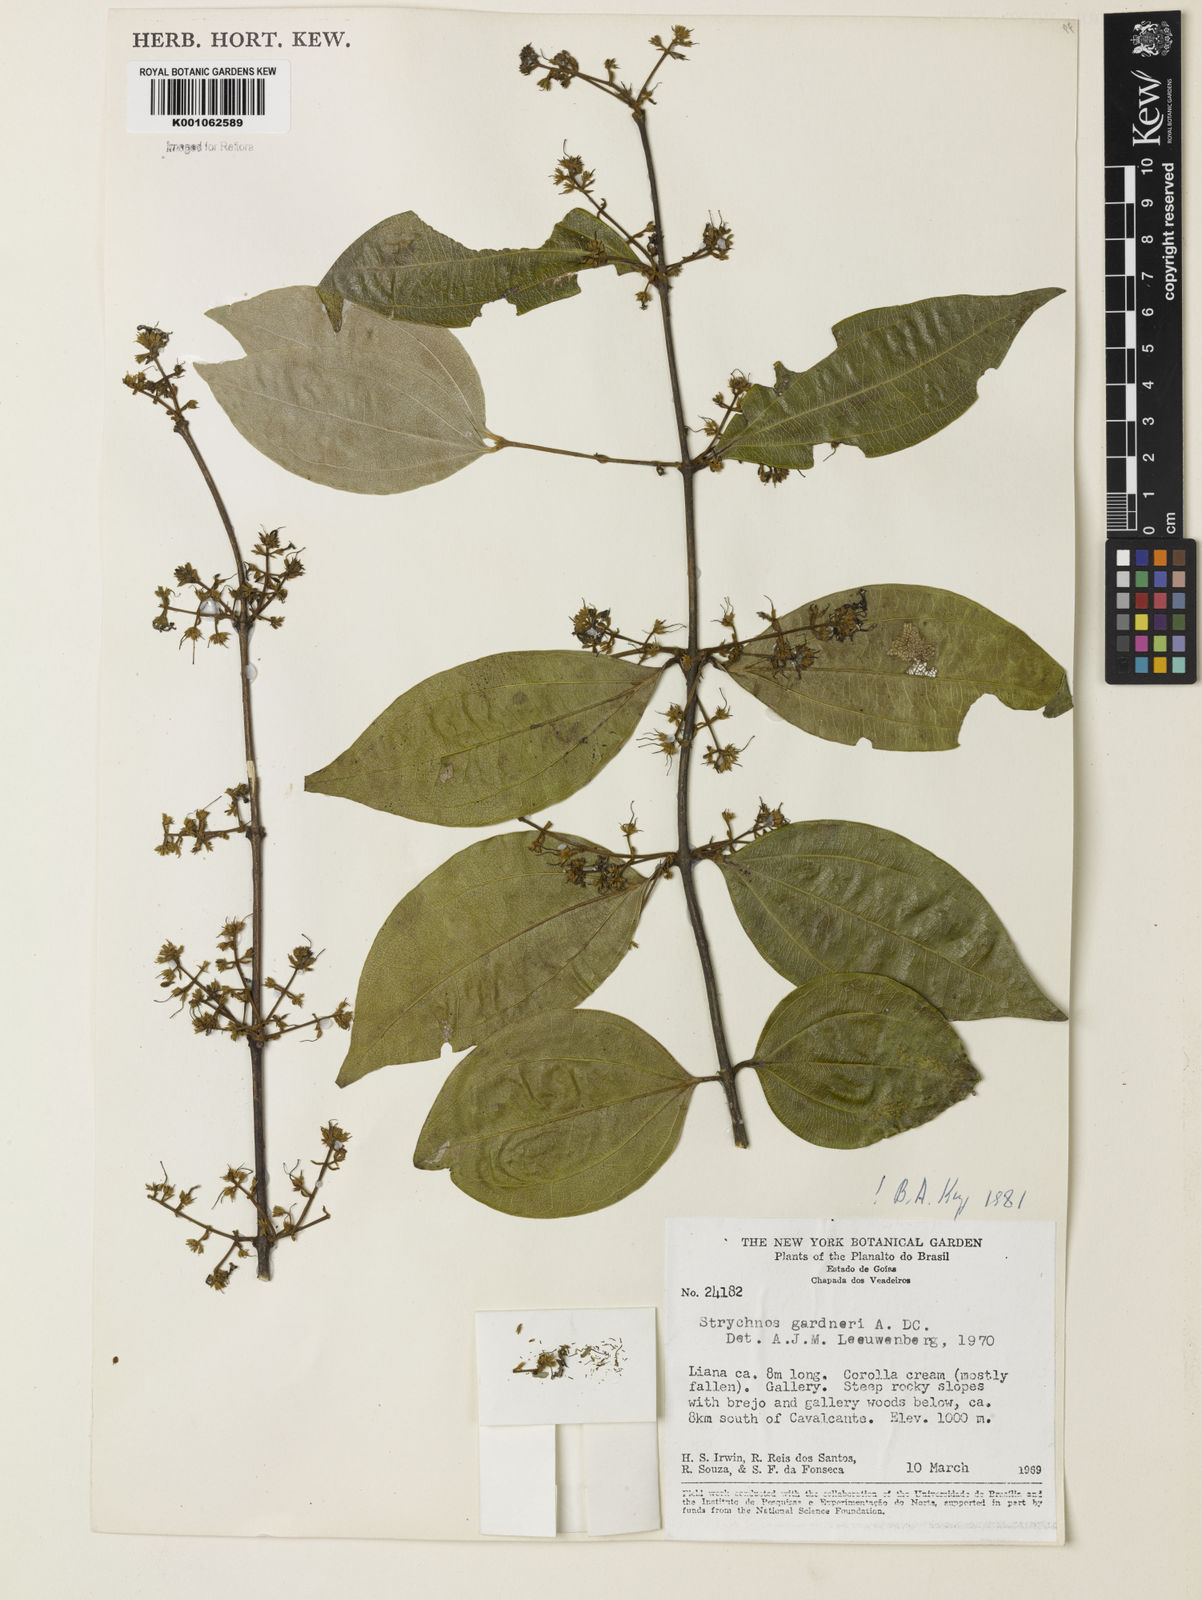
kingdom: Plantae
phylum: Tracheophyta
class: Magnoliopsida
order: Gentianales
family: Loganiaceae
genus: Strychnos
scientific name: Strychnos gardneri
